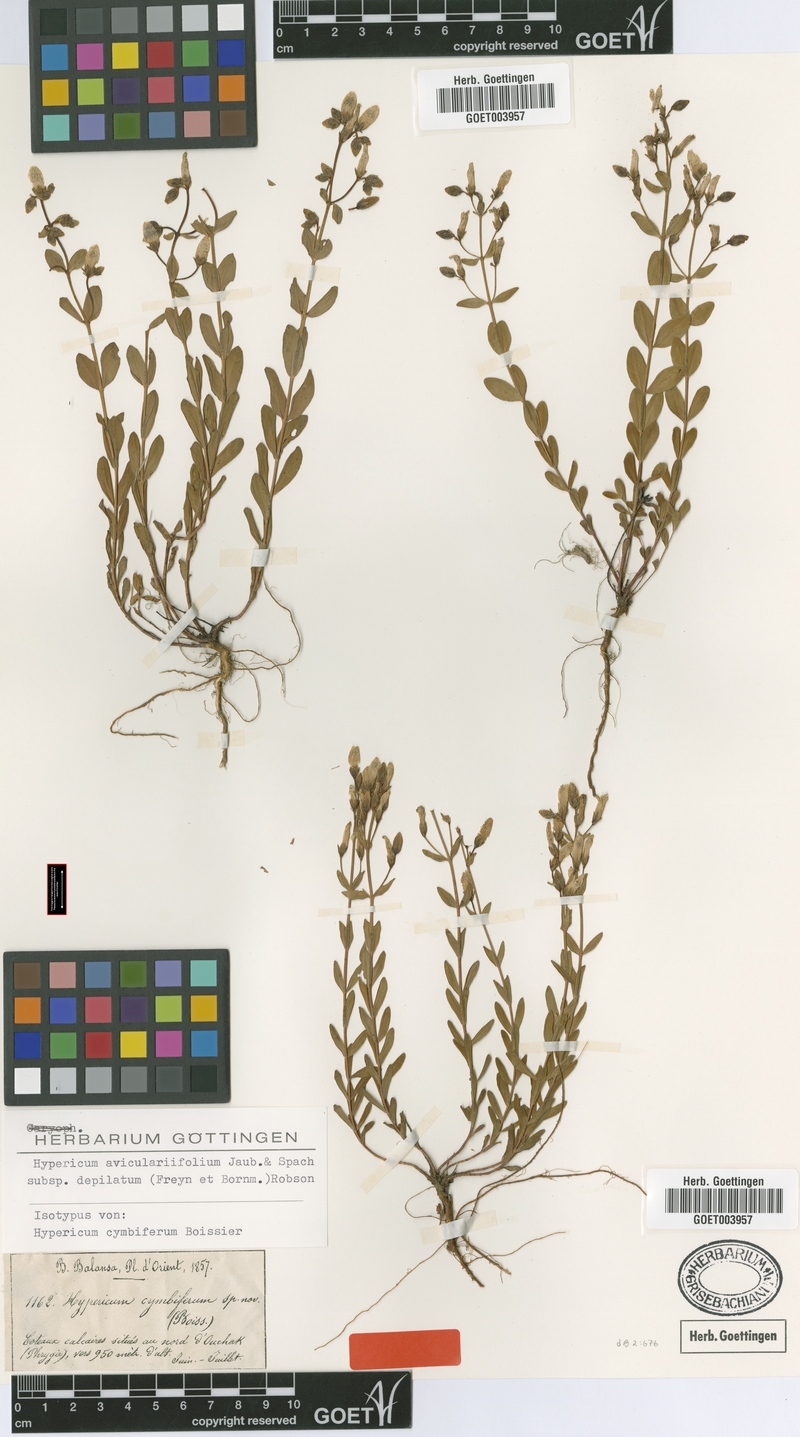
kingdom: Plantae
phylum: Tracheophyta
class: Magnoliopsida
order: Malpighiales
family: Hypericaceae
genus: Hypericum
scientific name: Hypericum orientale
